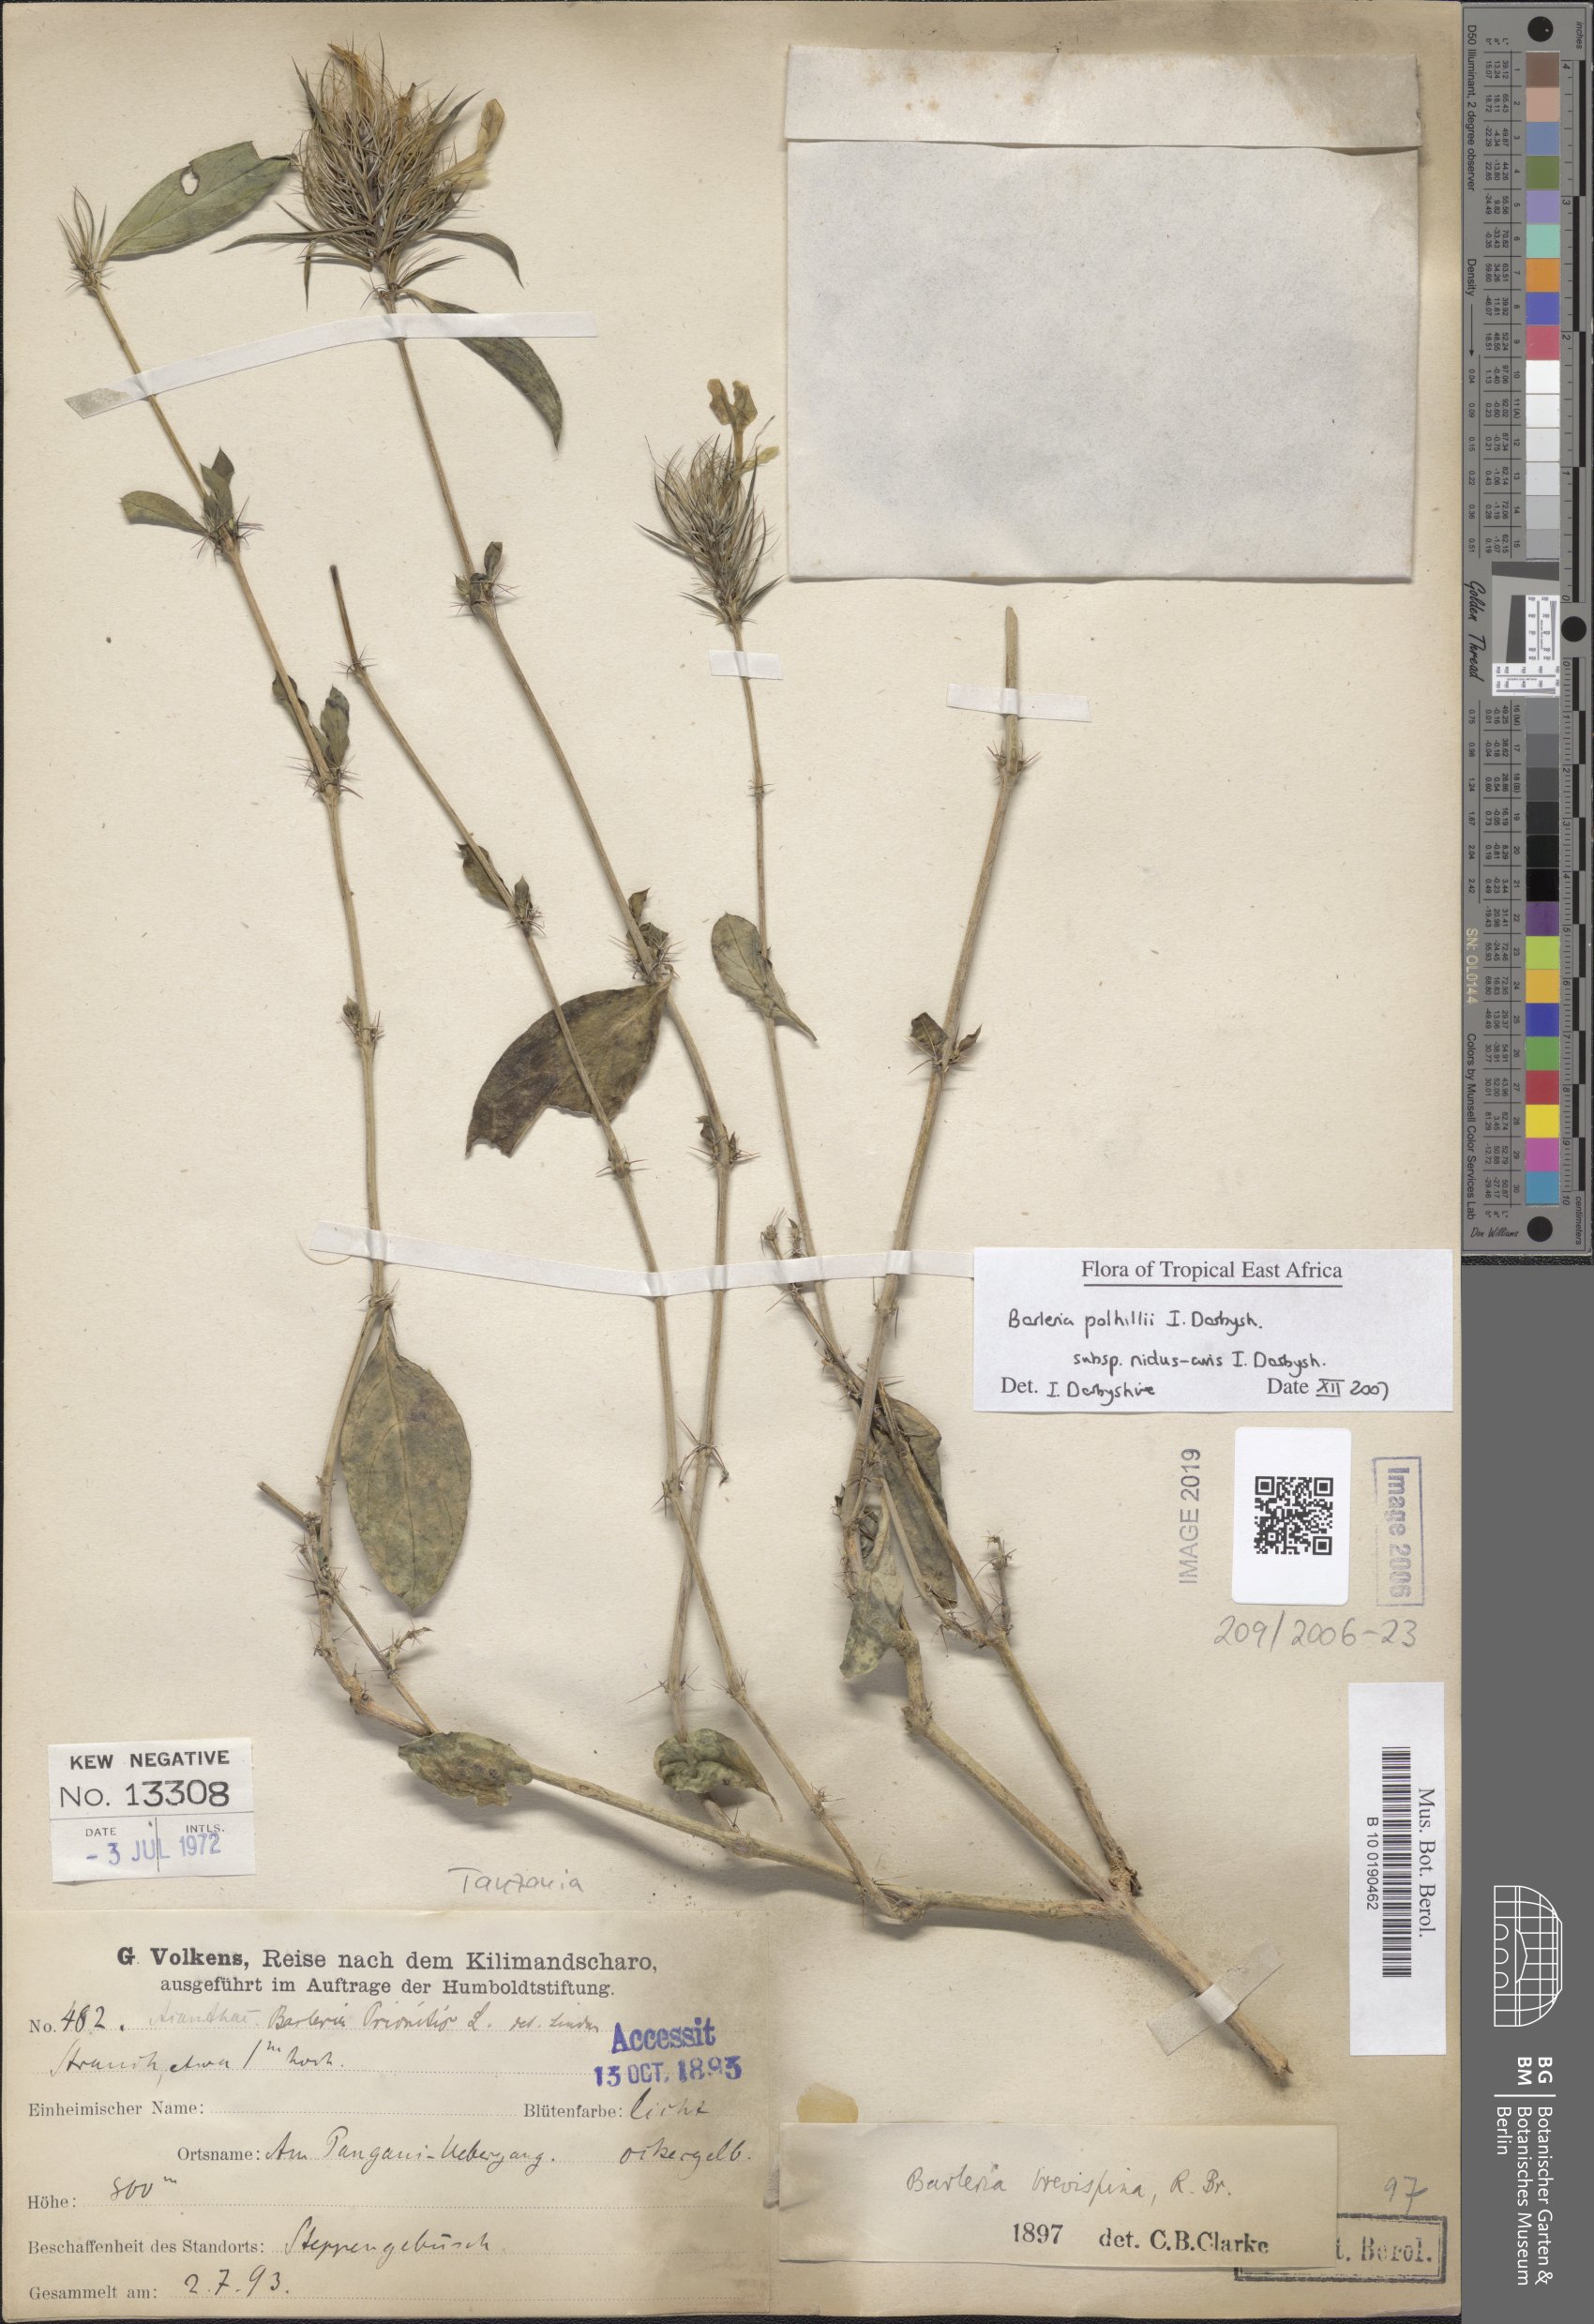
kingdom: Plantae
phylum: Tracheophyta
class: Magnoliopsida
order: Lamiales
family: Acanthaceae
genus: Barleria
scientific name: Barleria polhillii
